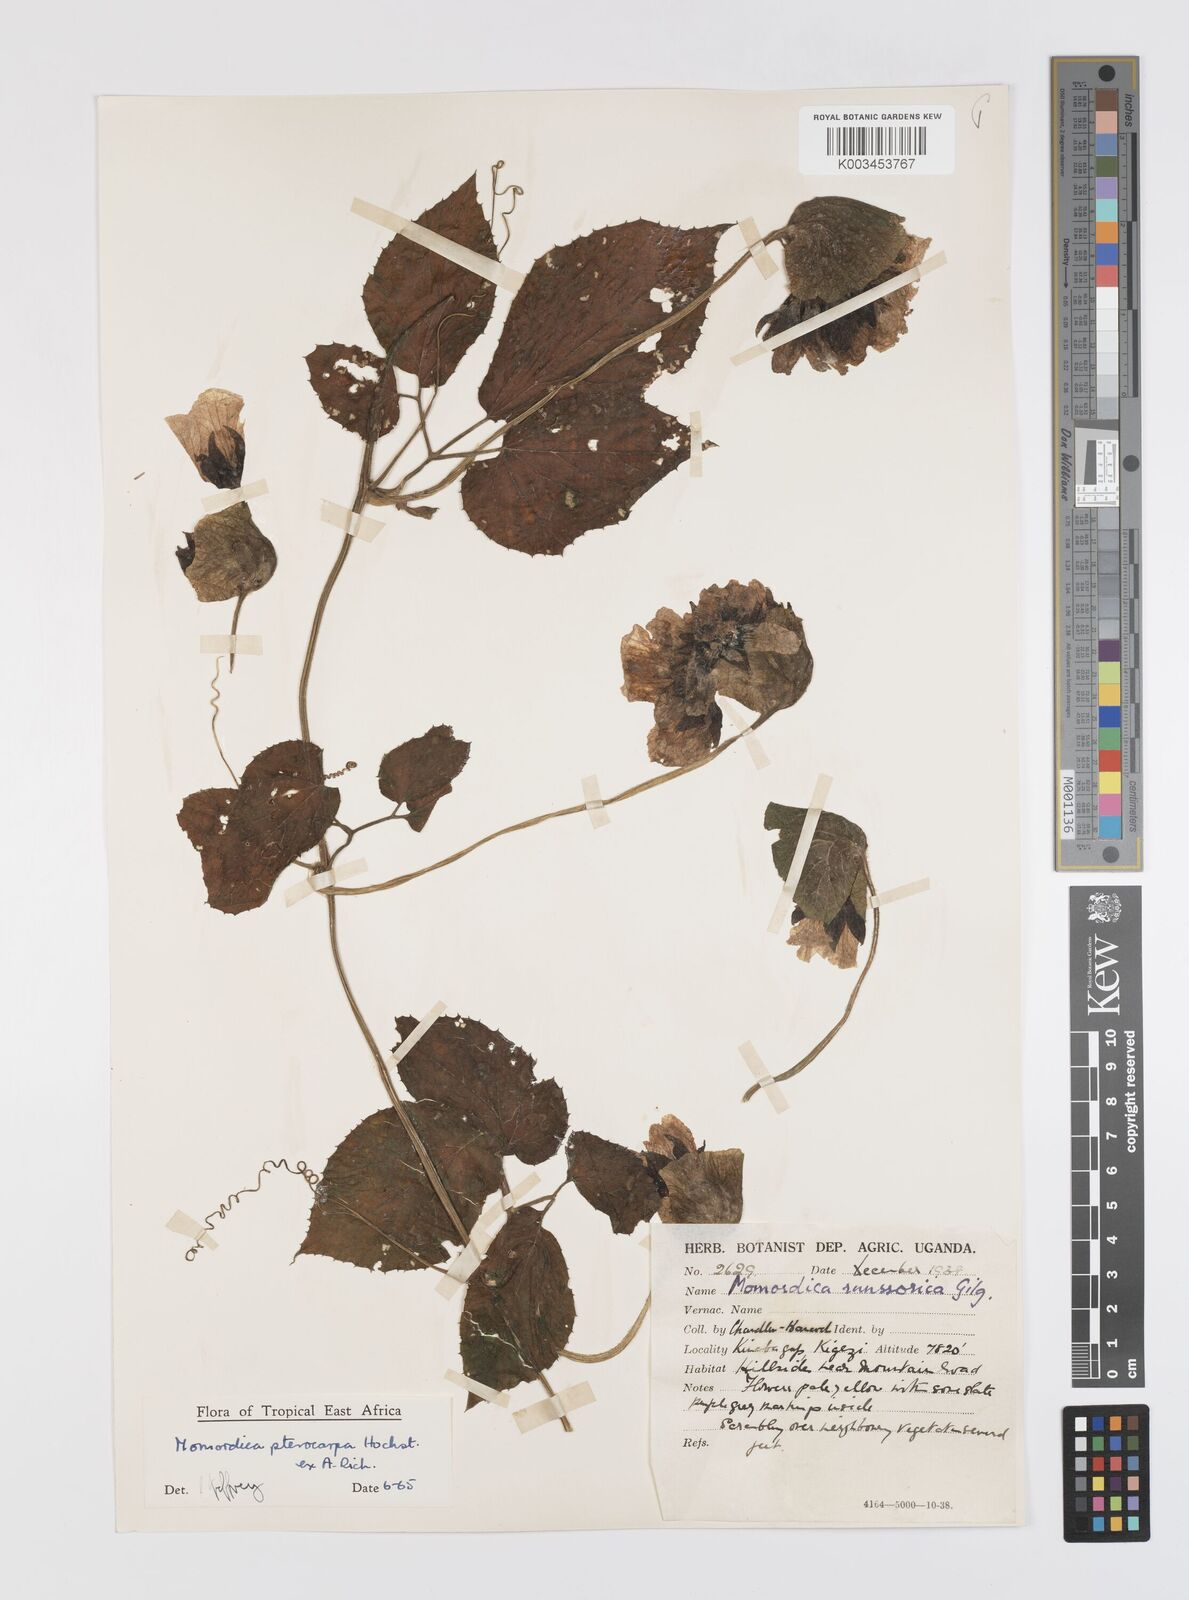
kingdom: Plantae
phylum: Tracheophyta
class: Magnoliopsida
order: Cucurbitales
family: Cucurbitaceae
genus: Momordica
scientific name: Momordica pterocarpa
